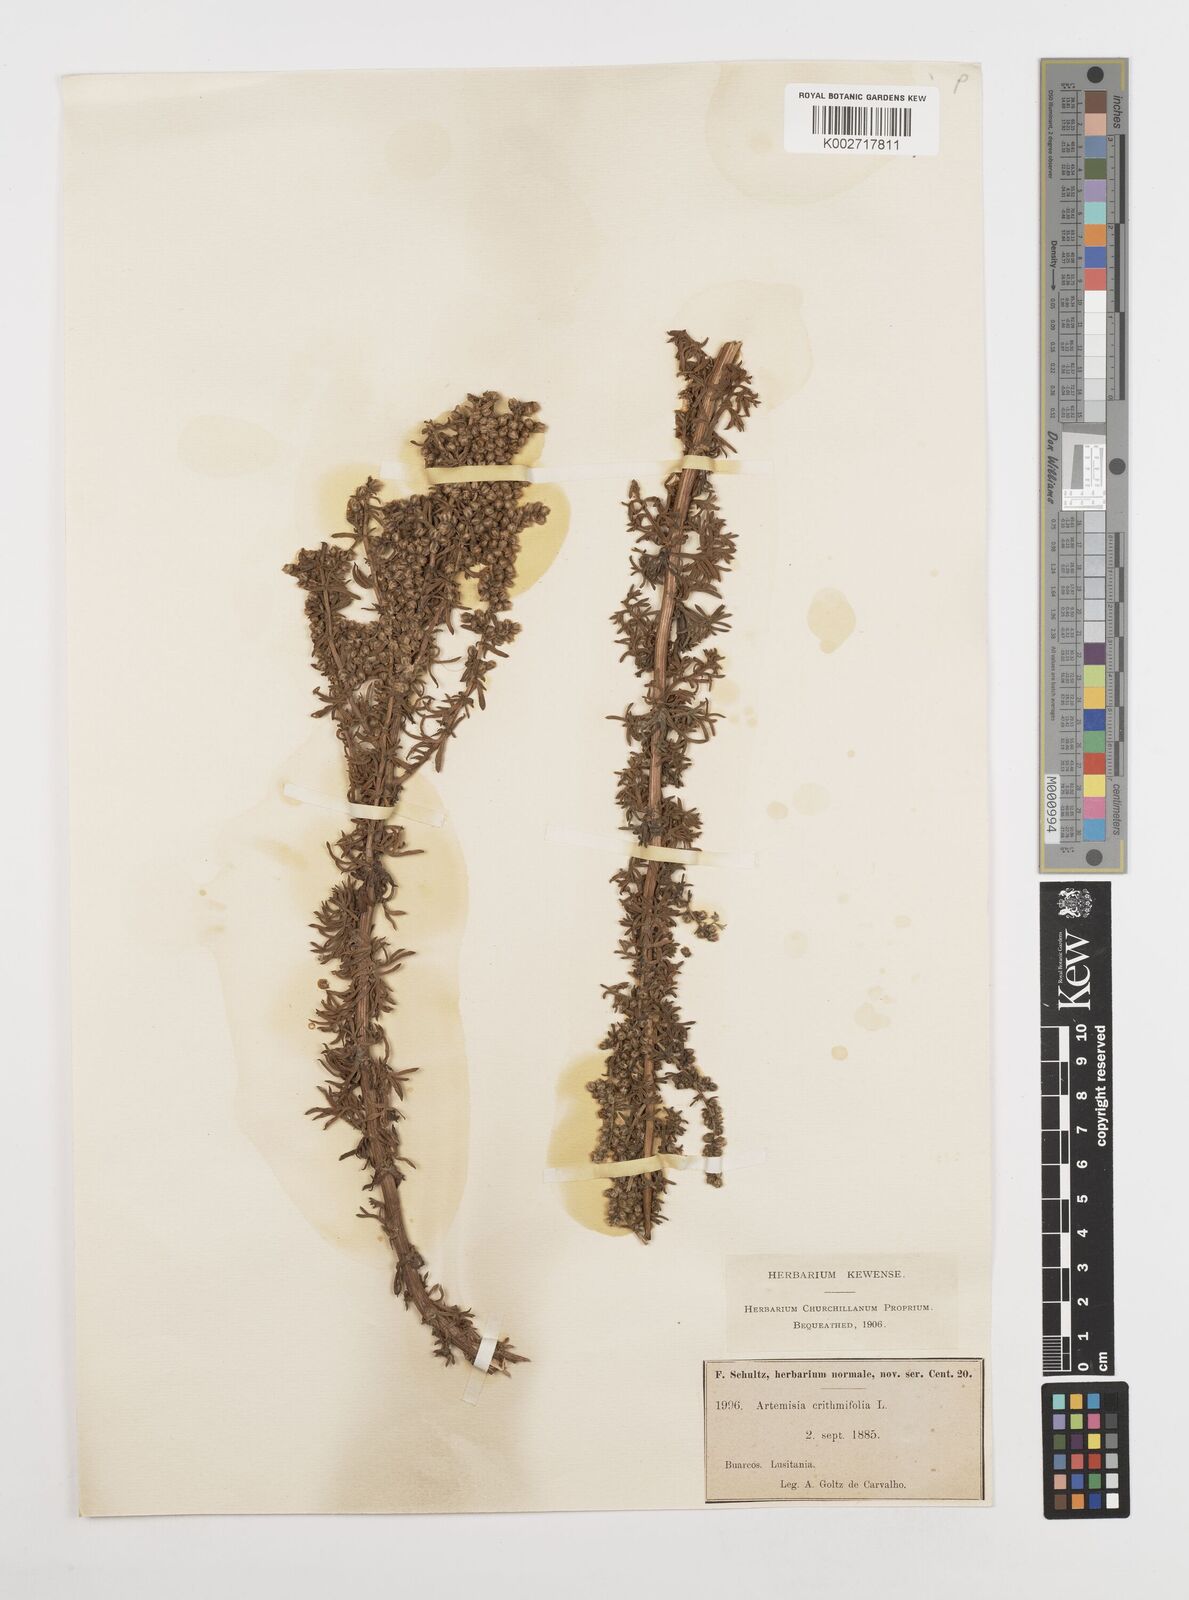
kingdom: Plantae
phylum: Tracheophyta
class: Magnoliopsida
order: Asterales
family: Asteraceae
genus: Artemisia
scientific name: Artemisia crithmifolia
